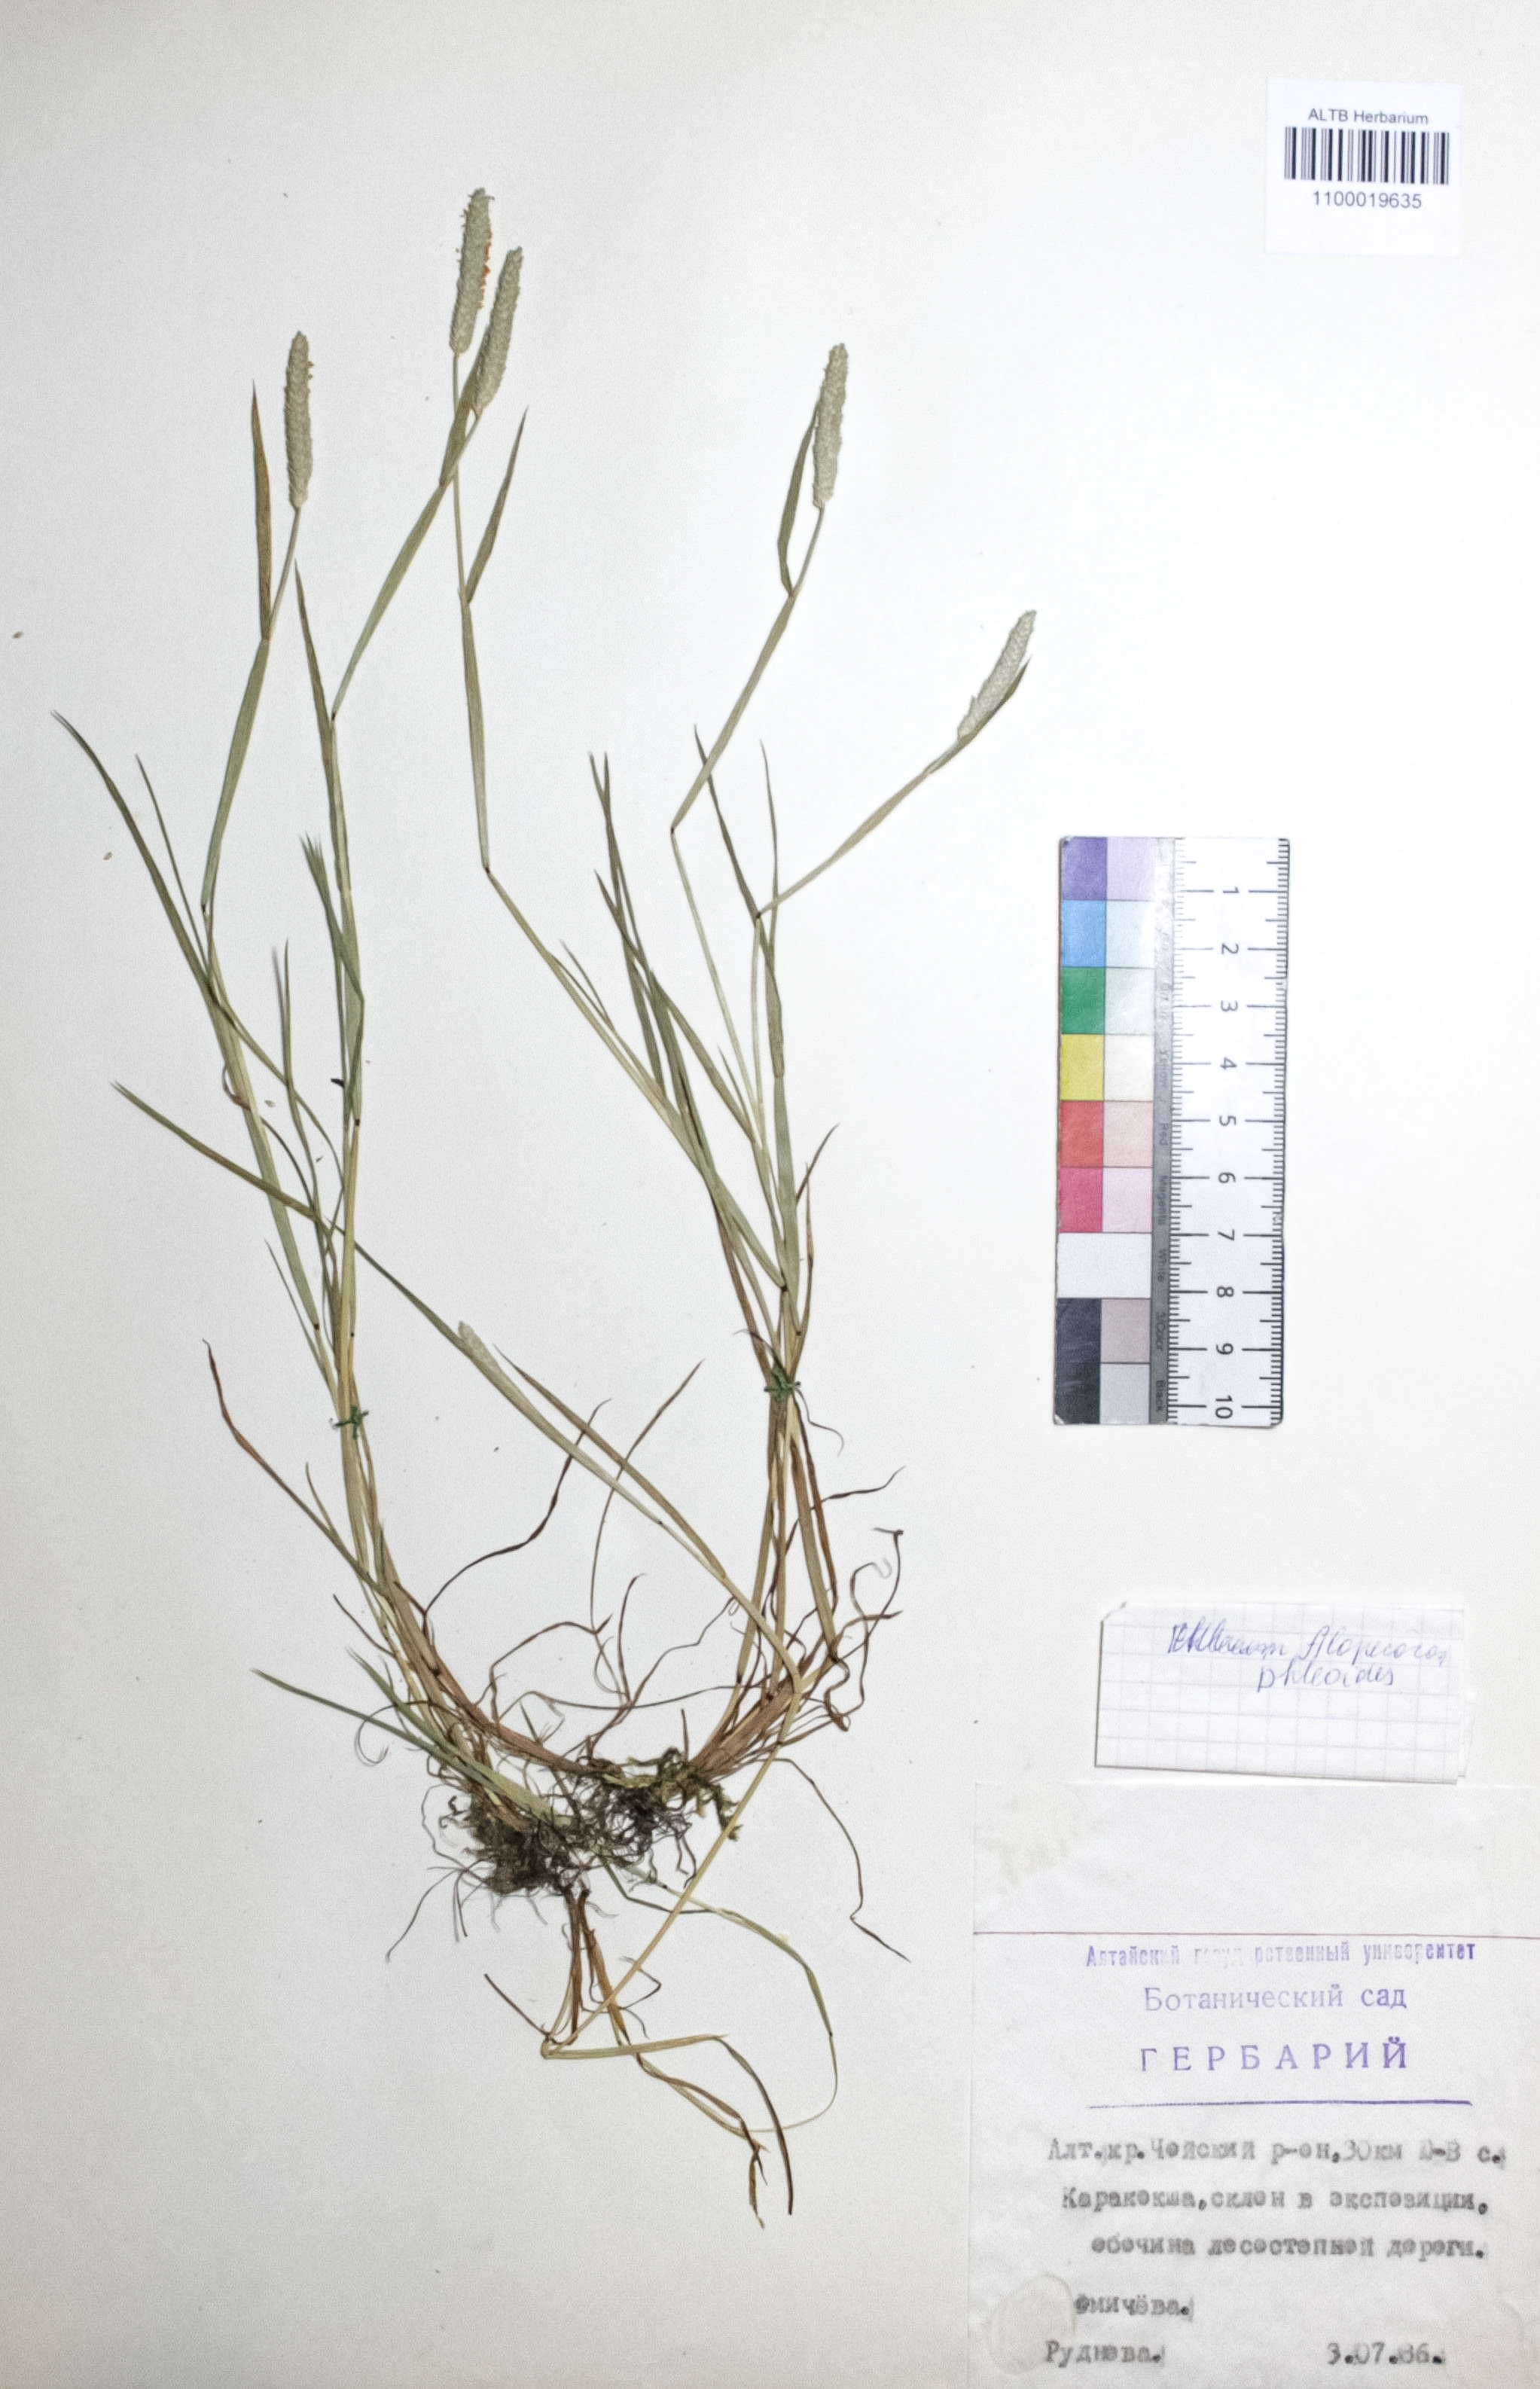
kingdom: Plantae
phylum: Tracheophyta
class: Liliopsida
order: Poales
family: Poaceae
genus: Alopecurus
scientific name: Alopecurus aequalis
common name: Orange foxtail
